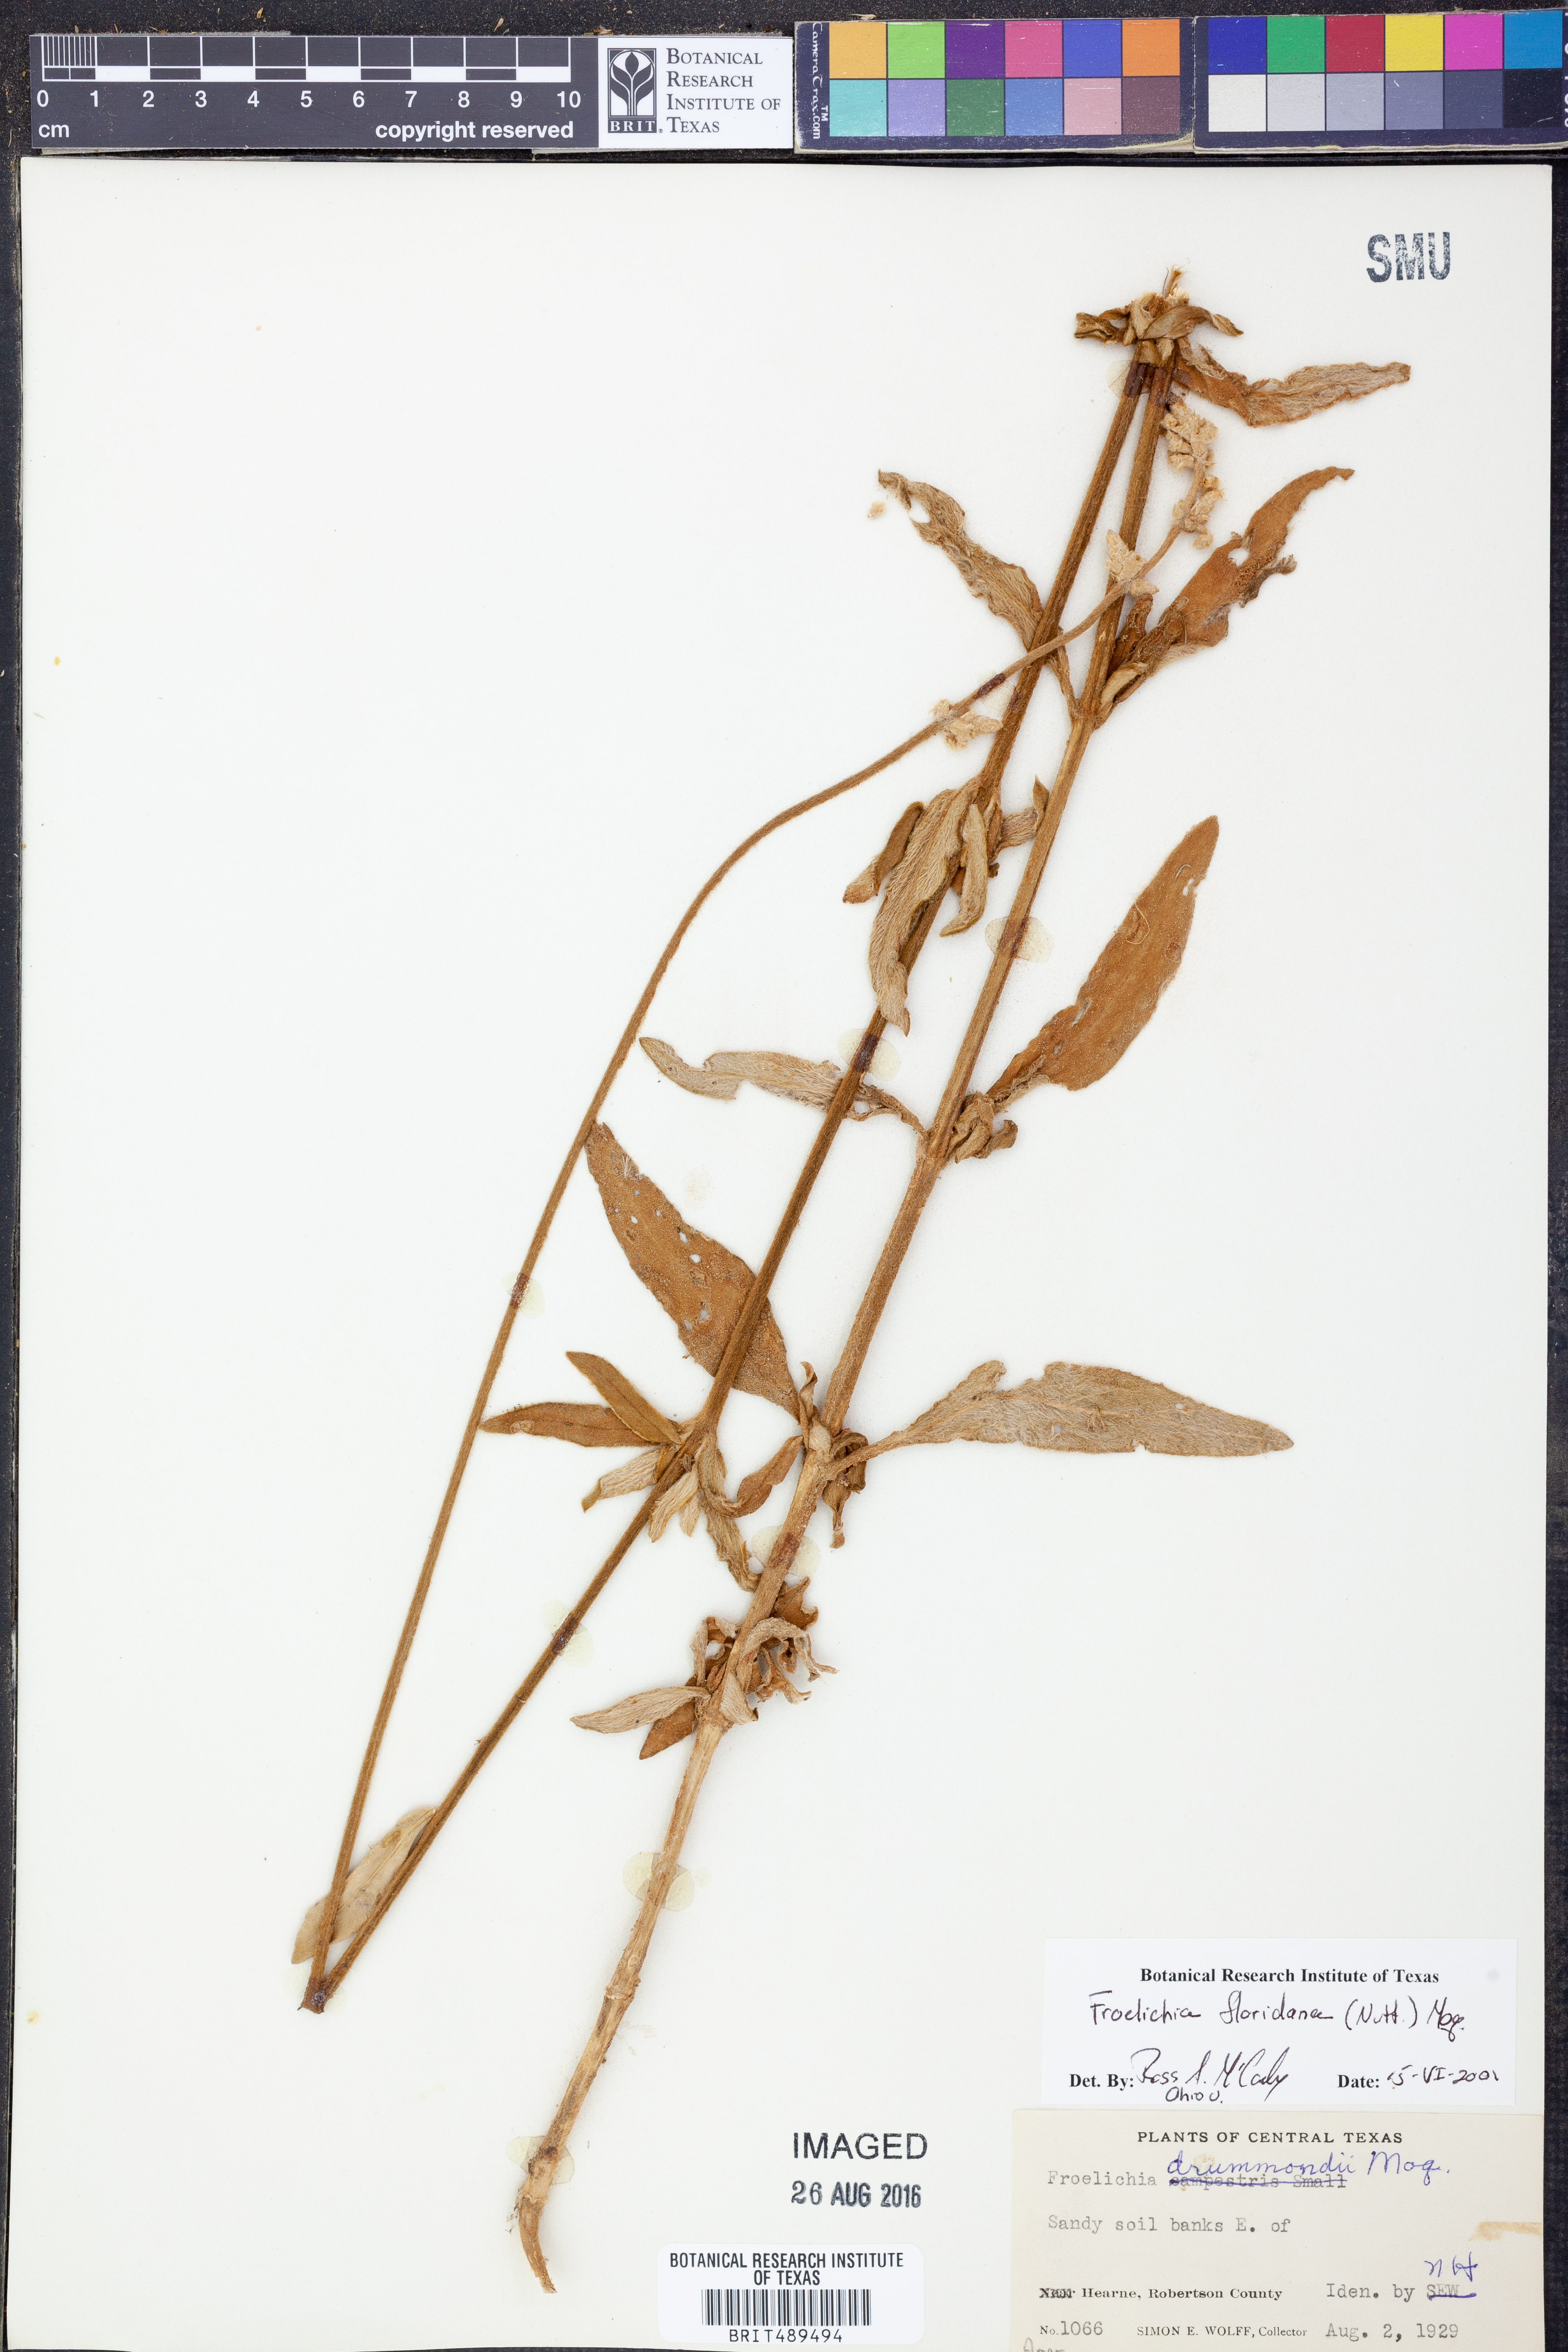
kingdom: Plantae
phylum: Tracheophyta
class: Magnoliopsida
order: Caryophyllales
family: Amaranthaceae
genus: Froelichia
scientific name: Froelichia floridana
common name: Florida snake-cotton
